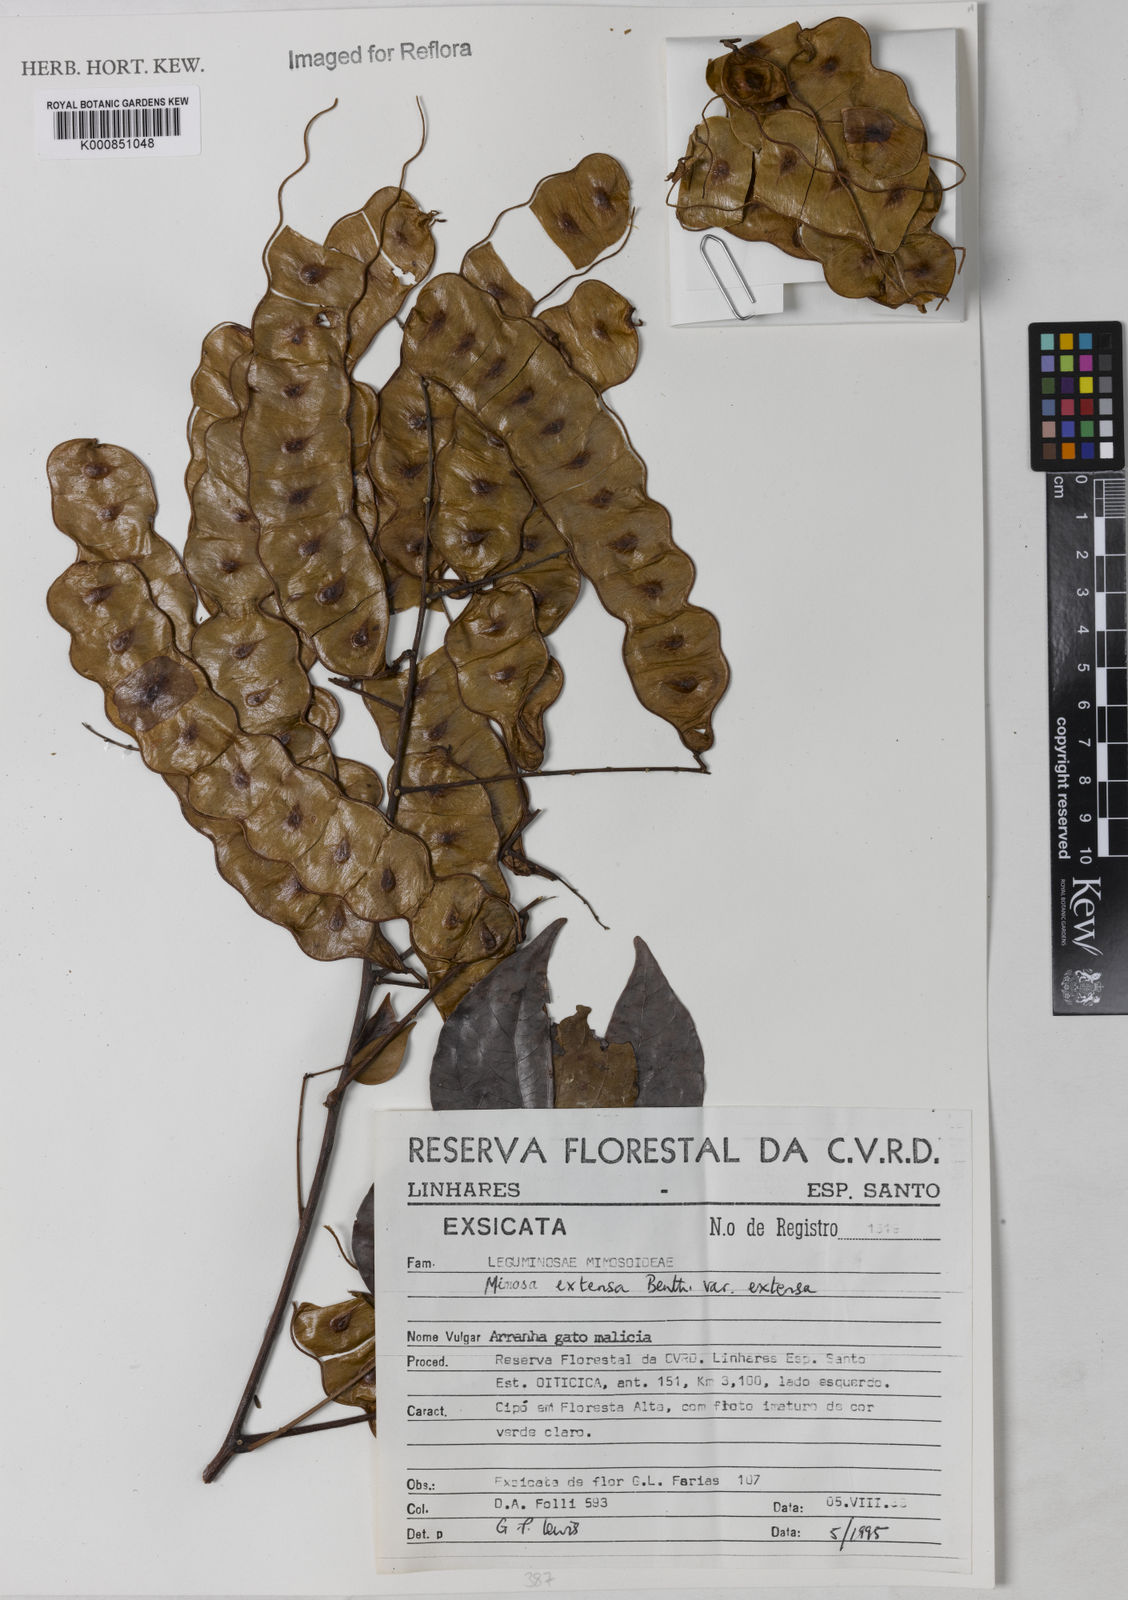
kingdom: Plantae
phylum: Tracheophyta
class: Magnoliopsida
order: Fabales
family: Fabaceae
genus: Mimosa
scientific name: Mimosa extensa
